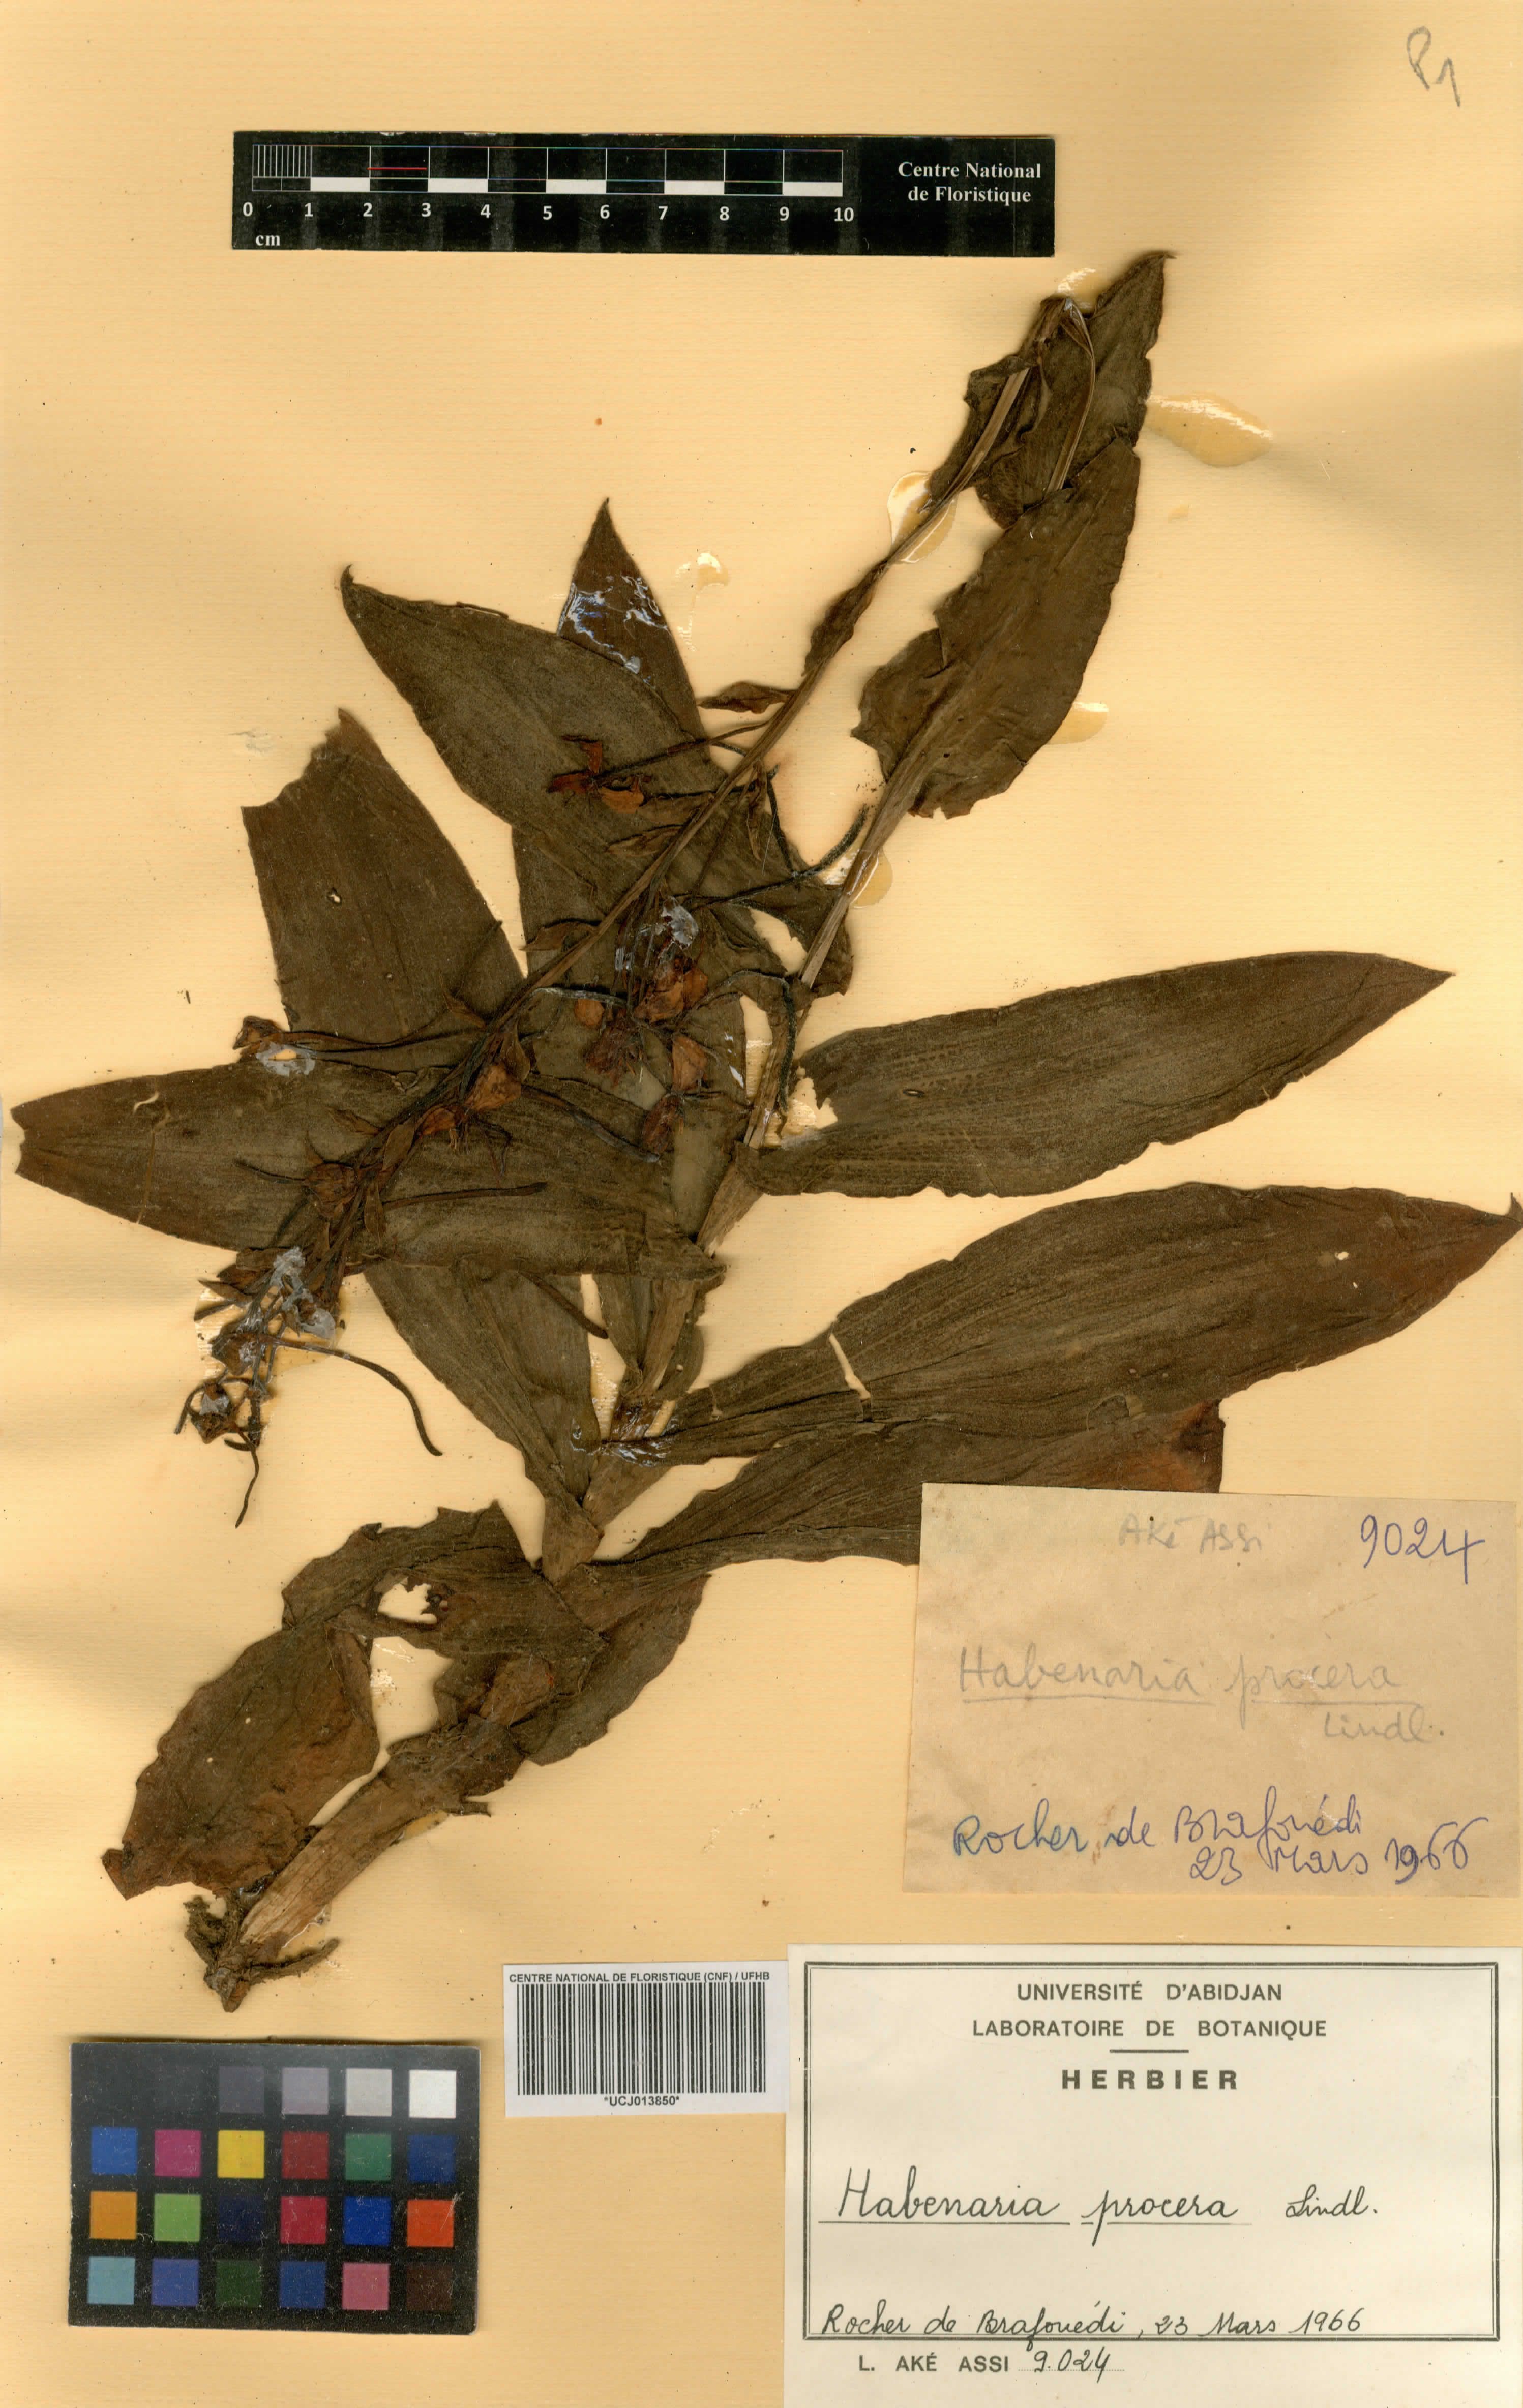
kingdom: Plantae
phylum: Tracheophyta
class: Liliopsida
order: Asparagales
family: Orchidaceae
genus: Habenaria
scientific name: Habenaria procera
